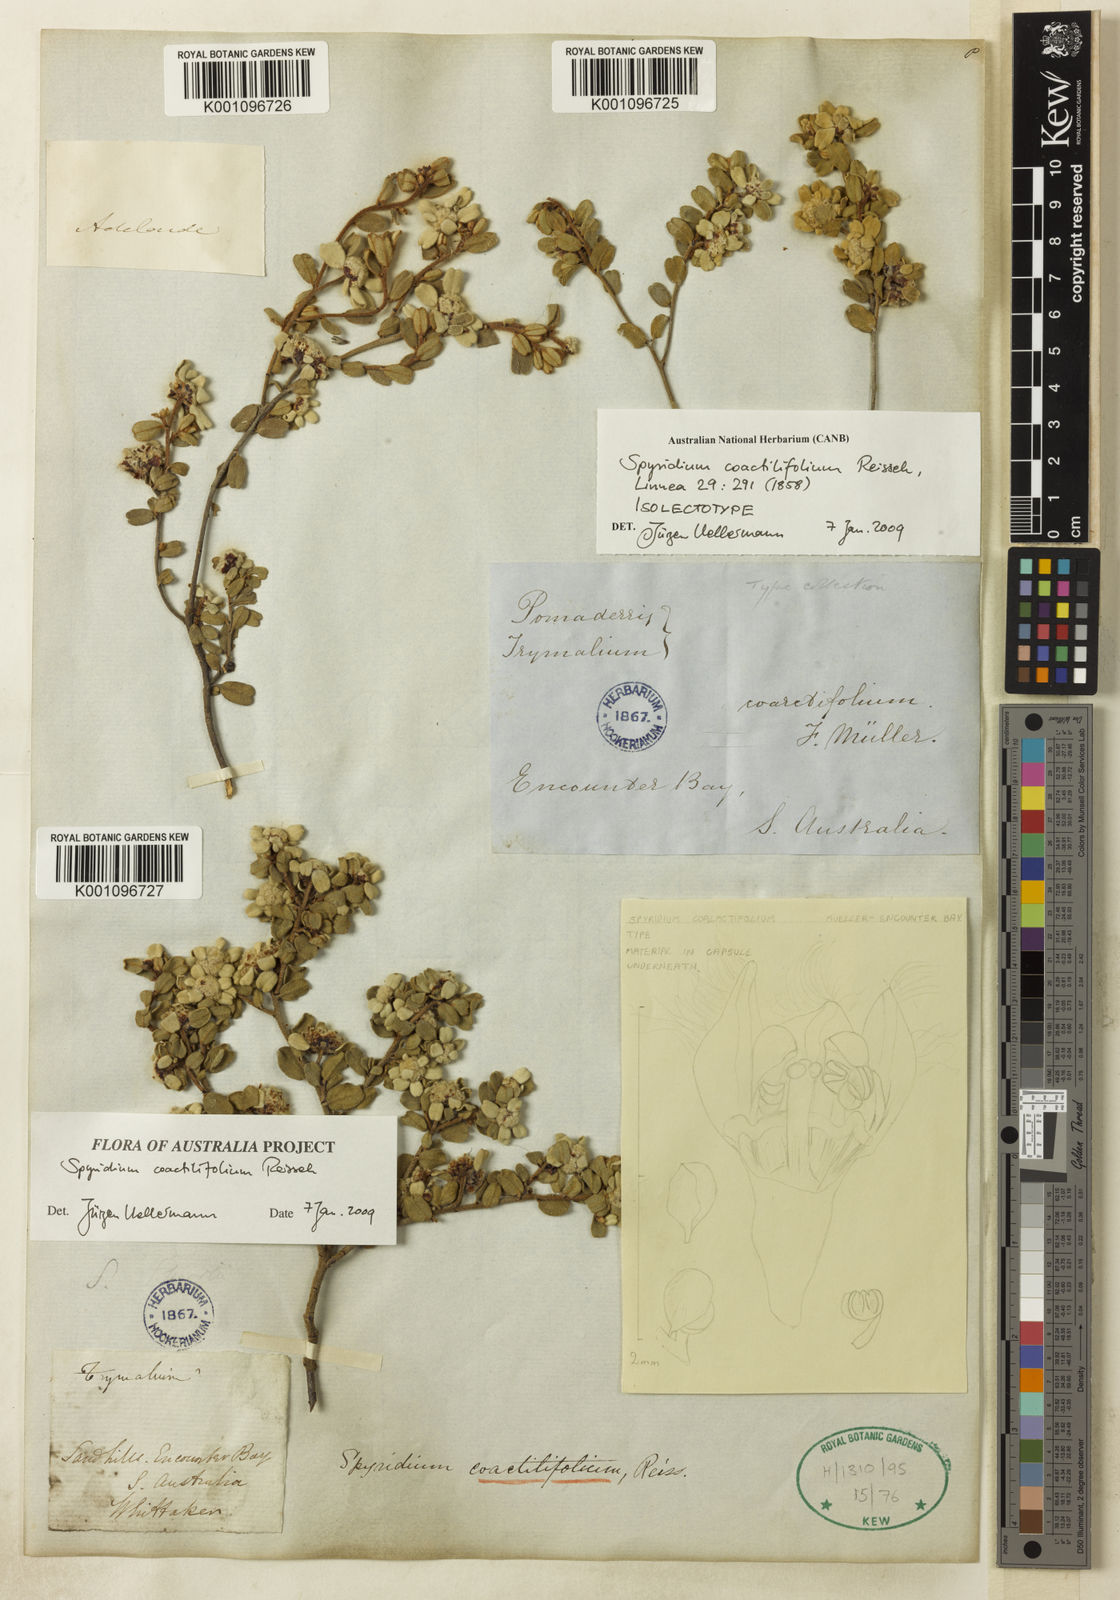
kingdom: Plantae
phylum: Tracheophyta
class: Magnoliopsida
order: Rosales
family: Rhamnaceae
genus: Spyridium
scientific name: Spyridium coactilifolium
